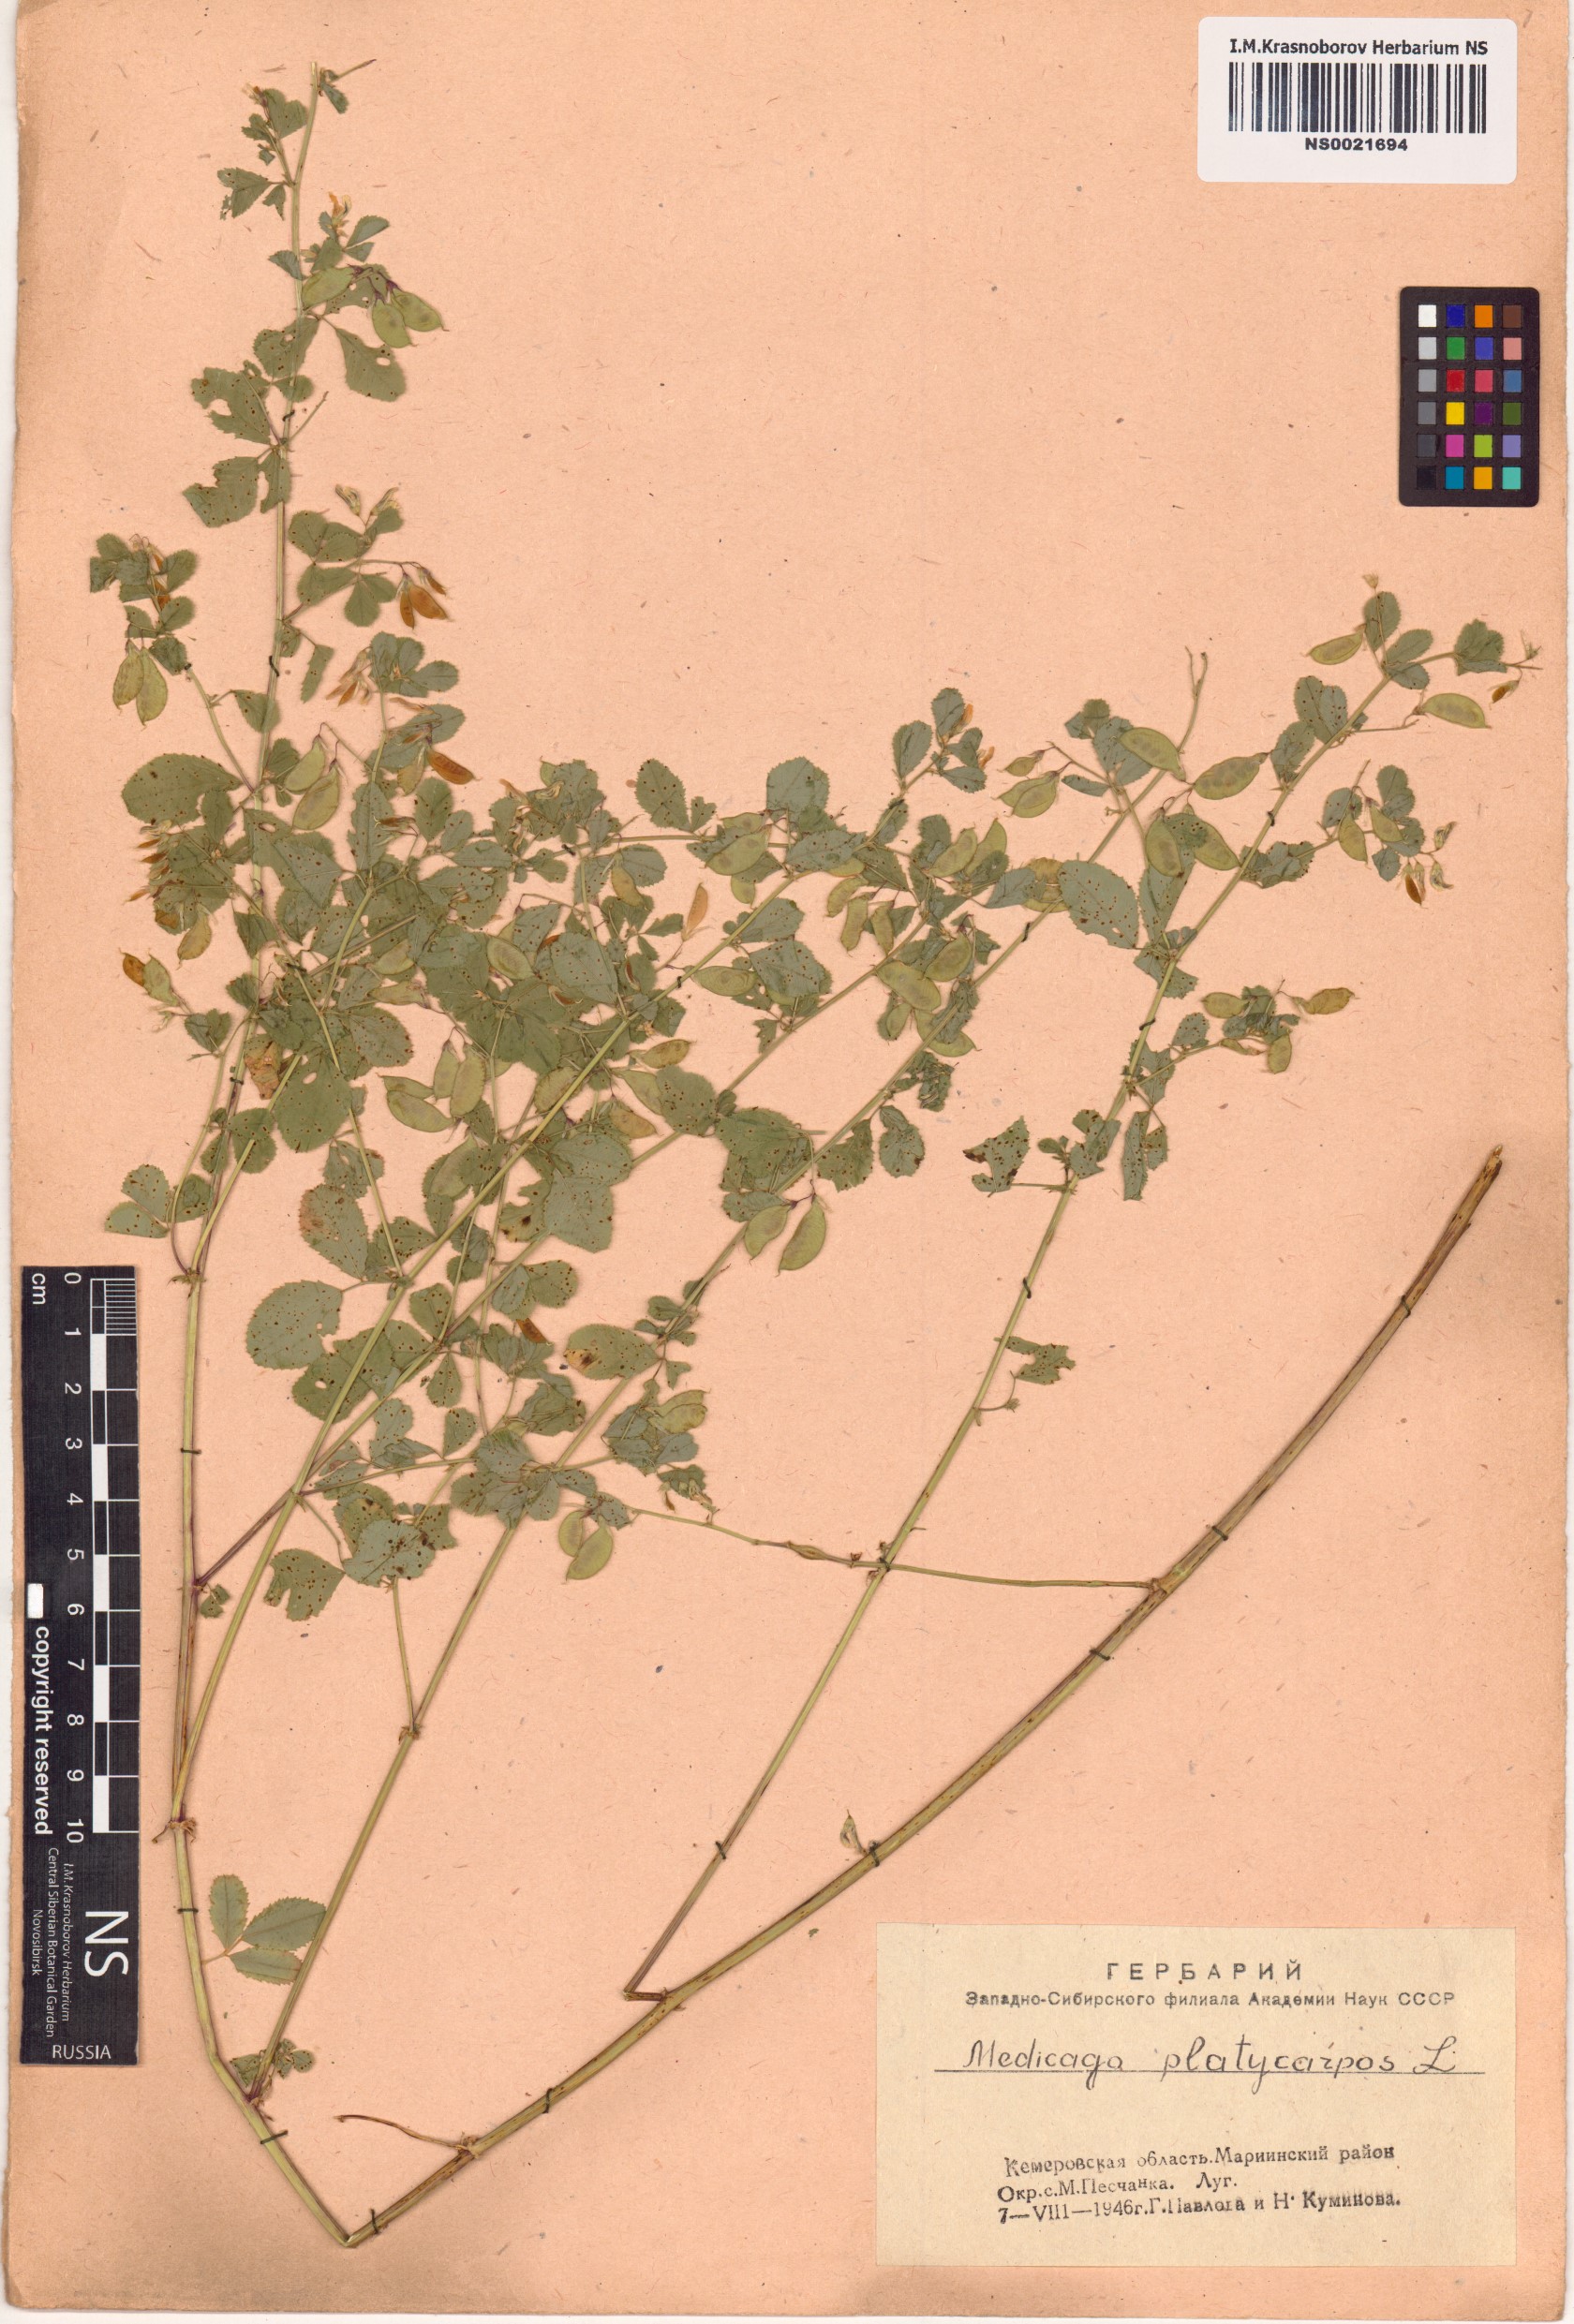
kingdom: Plantae
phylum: Tracheophyta
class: Magnoliopsida
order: Fabales
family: Fabaceae
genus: Medicago
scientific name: Medicago platycarpos
